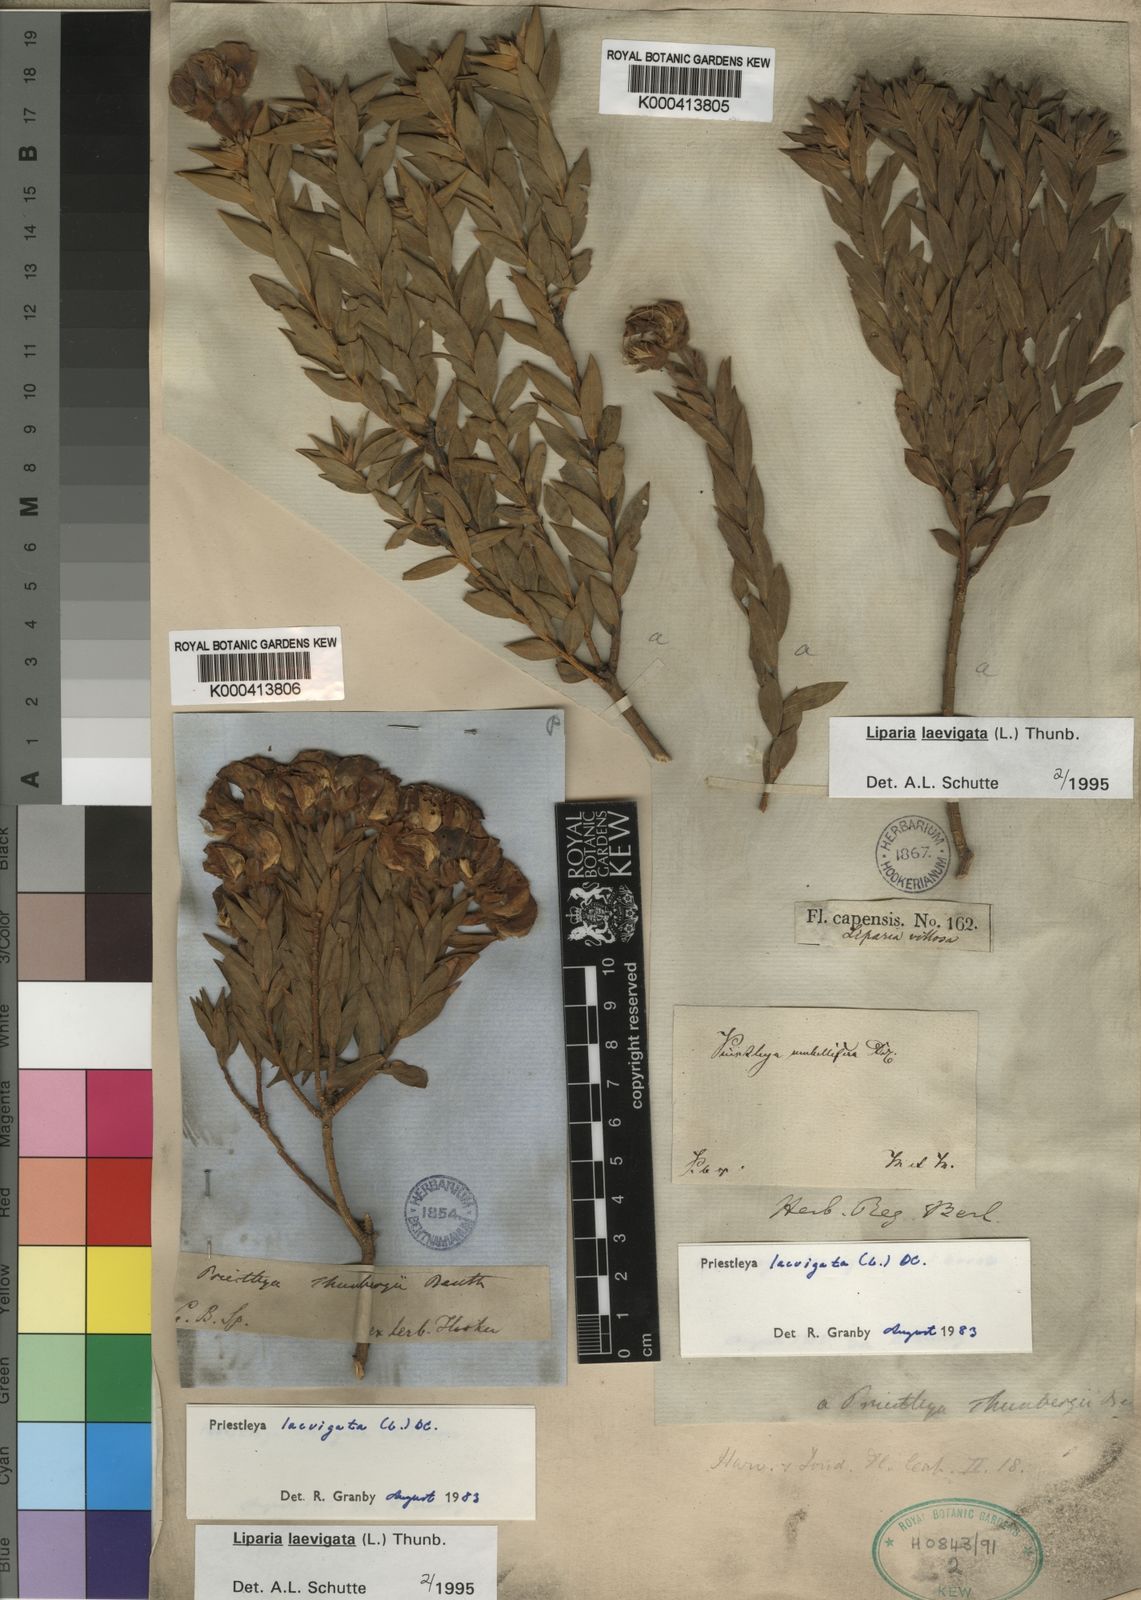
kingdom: Plantae
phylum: Tracheophyta
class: Magnoliopsida
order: Fabales
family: Fabaceae
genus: Liparia
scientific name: Liparia laevigata
